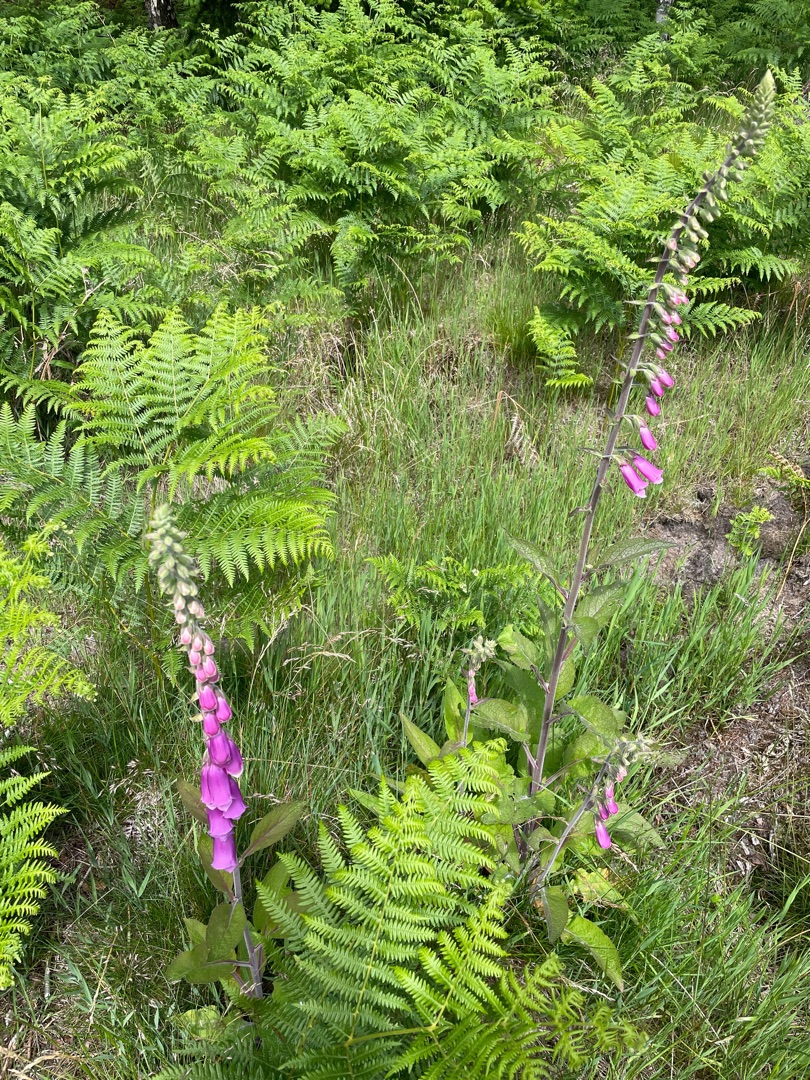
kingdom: Plantae
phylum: Tracheophyta
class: Magnoliopsida
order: Lamiales
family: Plantaginaceae
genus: Digitalis
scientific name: Digitalis purpurea
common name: Almindelig fingerbøl
